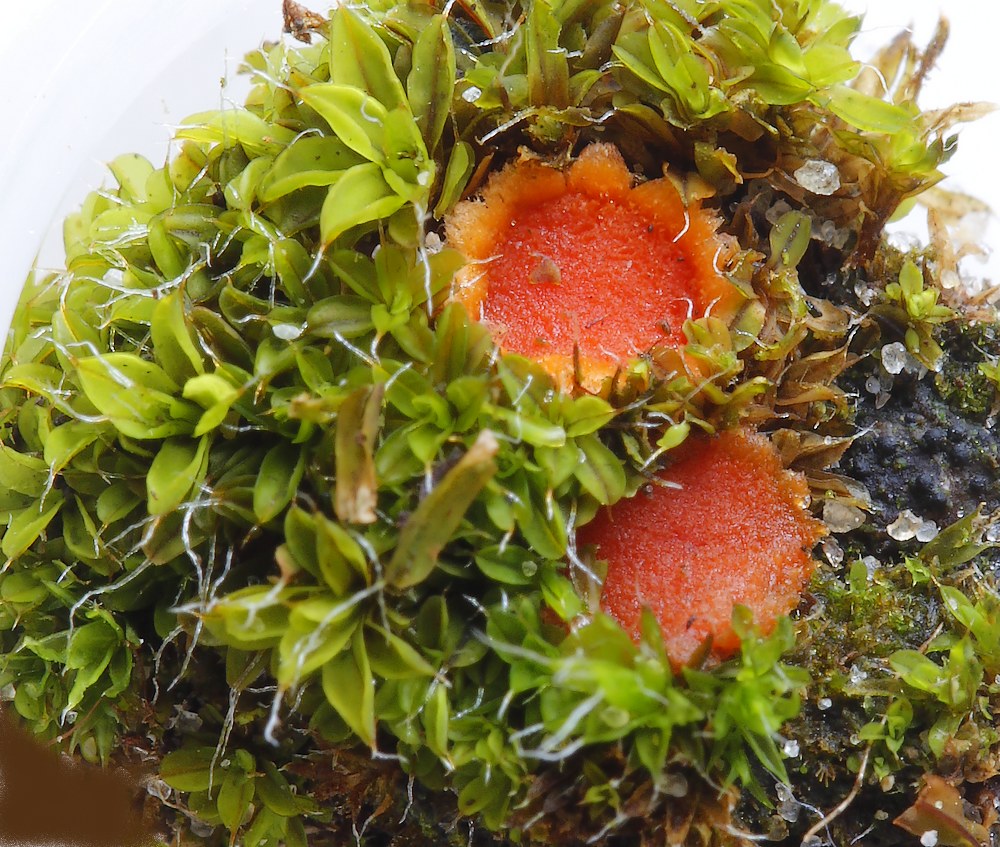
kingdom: Fungi
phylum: Ascomycota
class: Pezizomycetes
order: Pezizales
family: Pyronemataceae
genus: Lamprospora
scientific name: Lamprospora retispora
